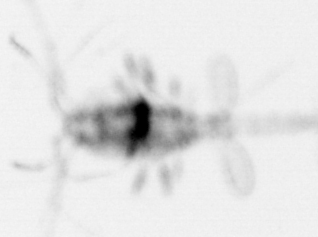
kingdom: Animalia
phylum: Arthropoda
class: Copepoda
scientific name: Copepoda
